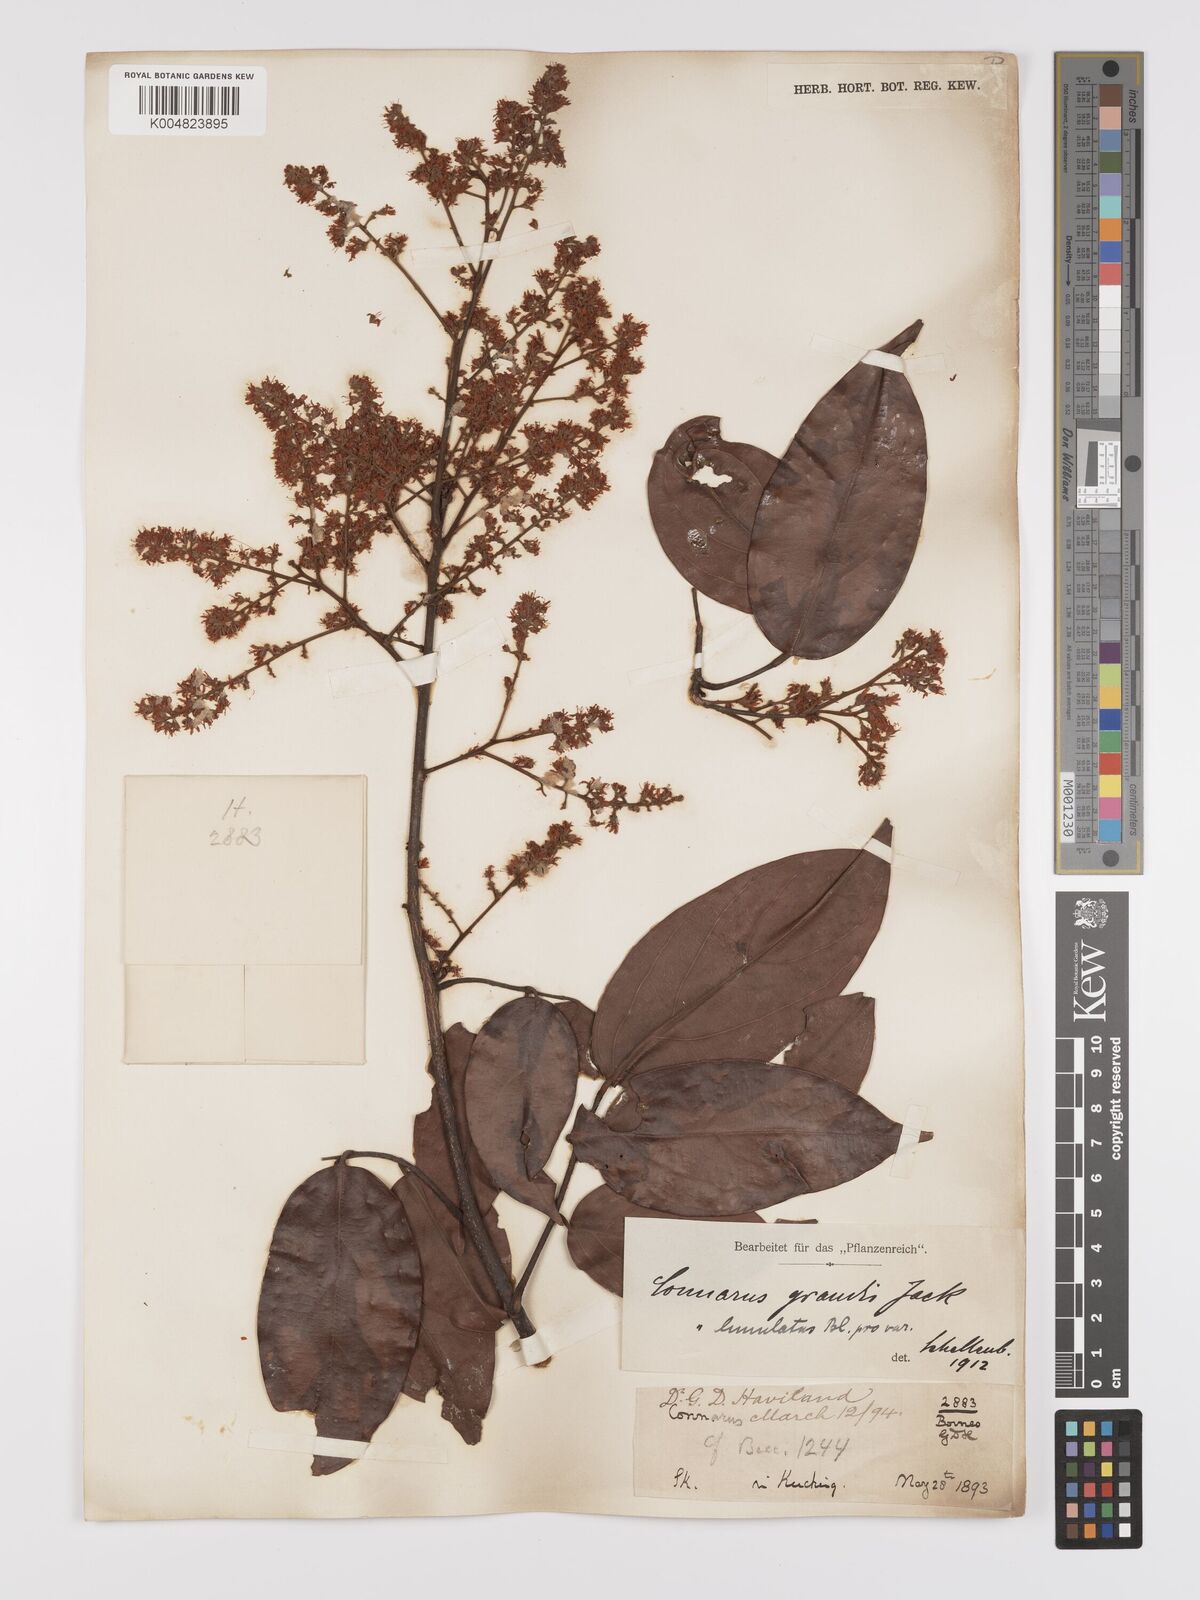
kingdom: Plantae
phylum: Tracheophyta
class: Magnoliopsida
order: Oxalidales
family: Connaraceae
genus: Connarus
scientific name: Connarus grandis
